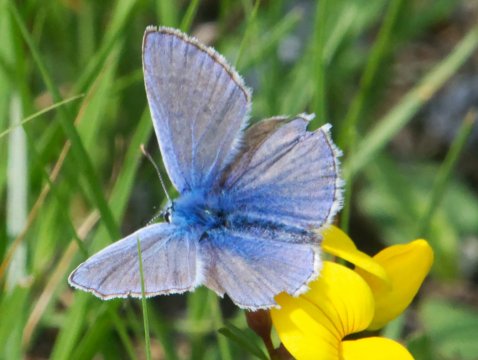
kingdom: Animalia
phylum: Arthropoda
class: Insecta
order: Lepidoptera
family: Lycaenidae
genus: Polyommatus
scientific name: Polyommatus icarus
